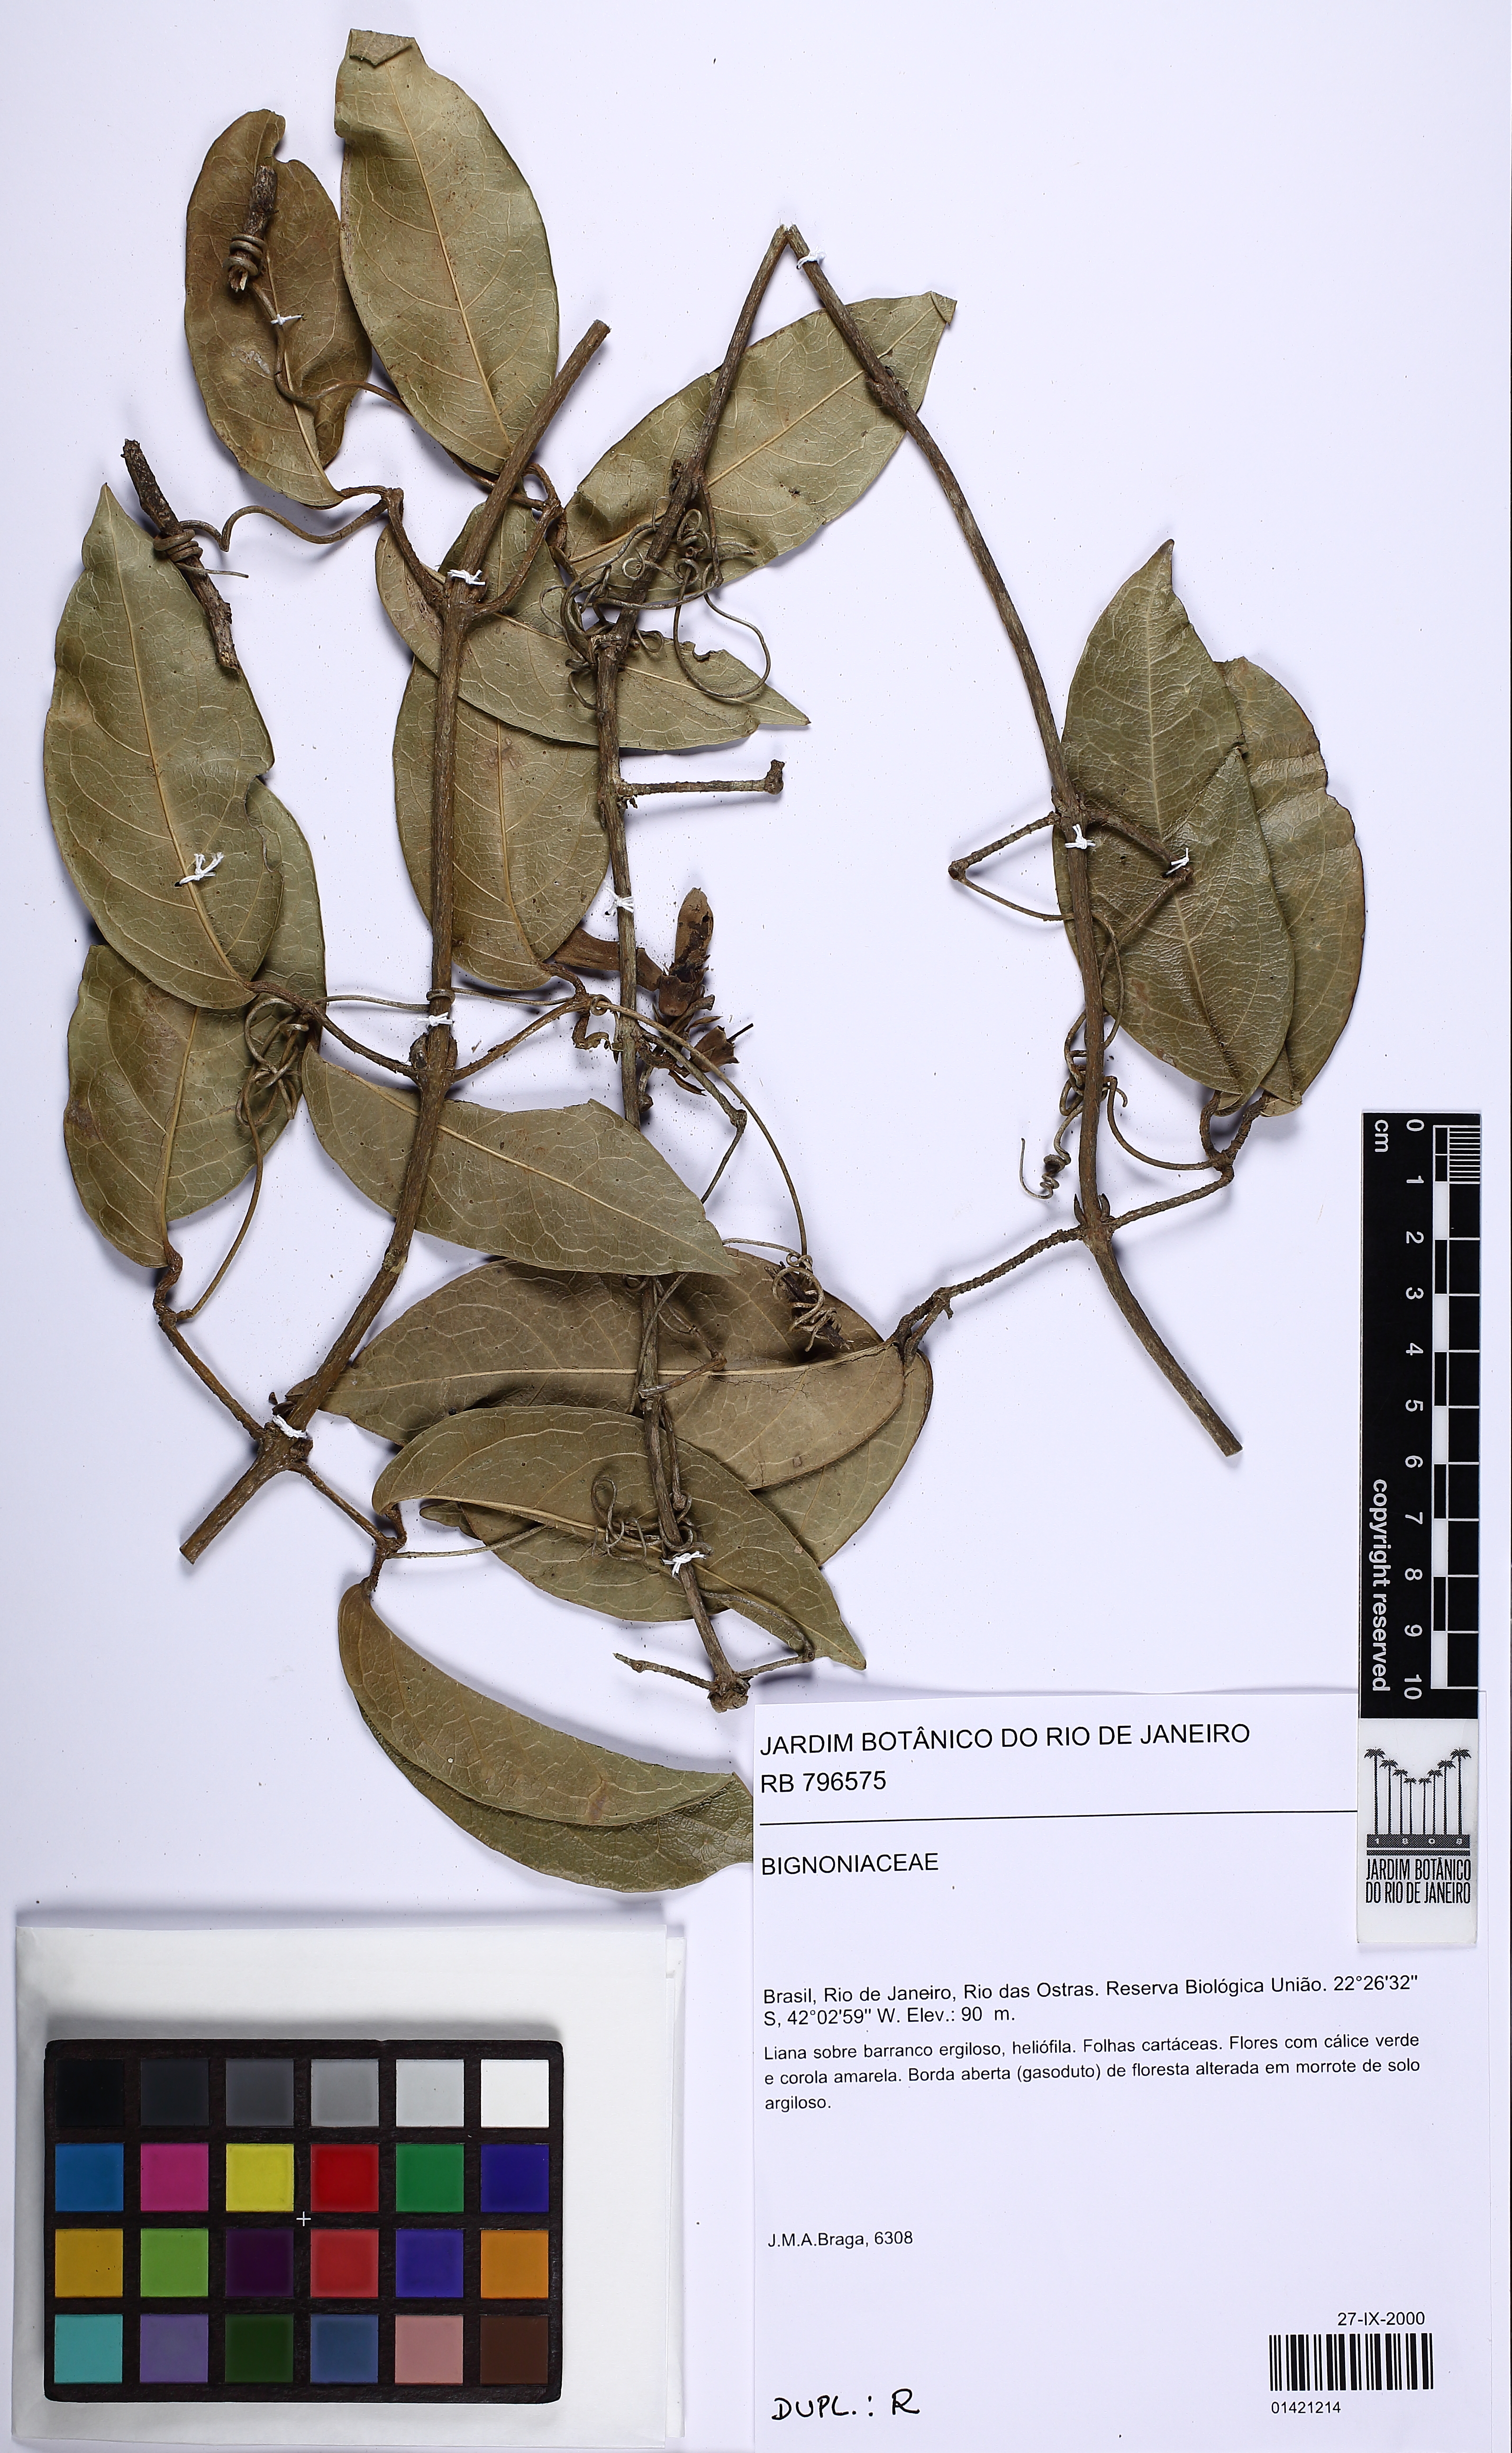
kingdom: Plantae
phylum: Tracheophyta
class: Magnoliopsida
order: Lamiales
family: Bignoniaceae
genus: Adenocalymma
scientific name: Adenocalymma acutissimum
